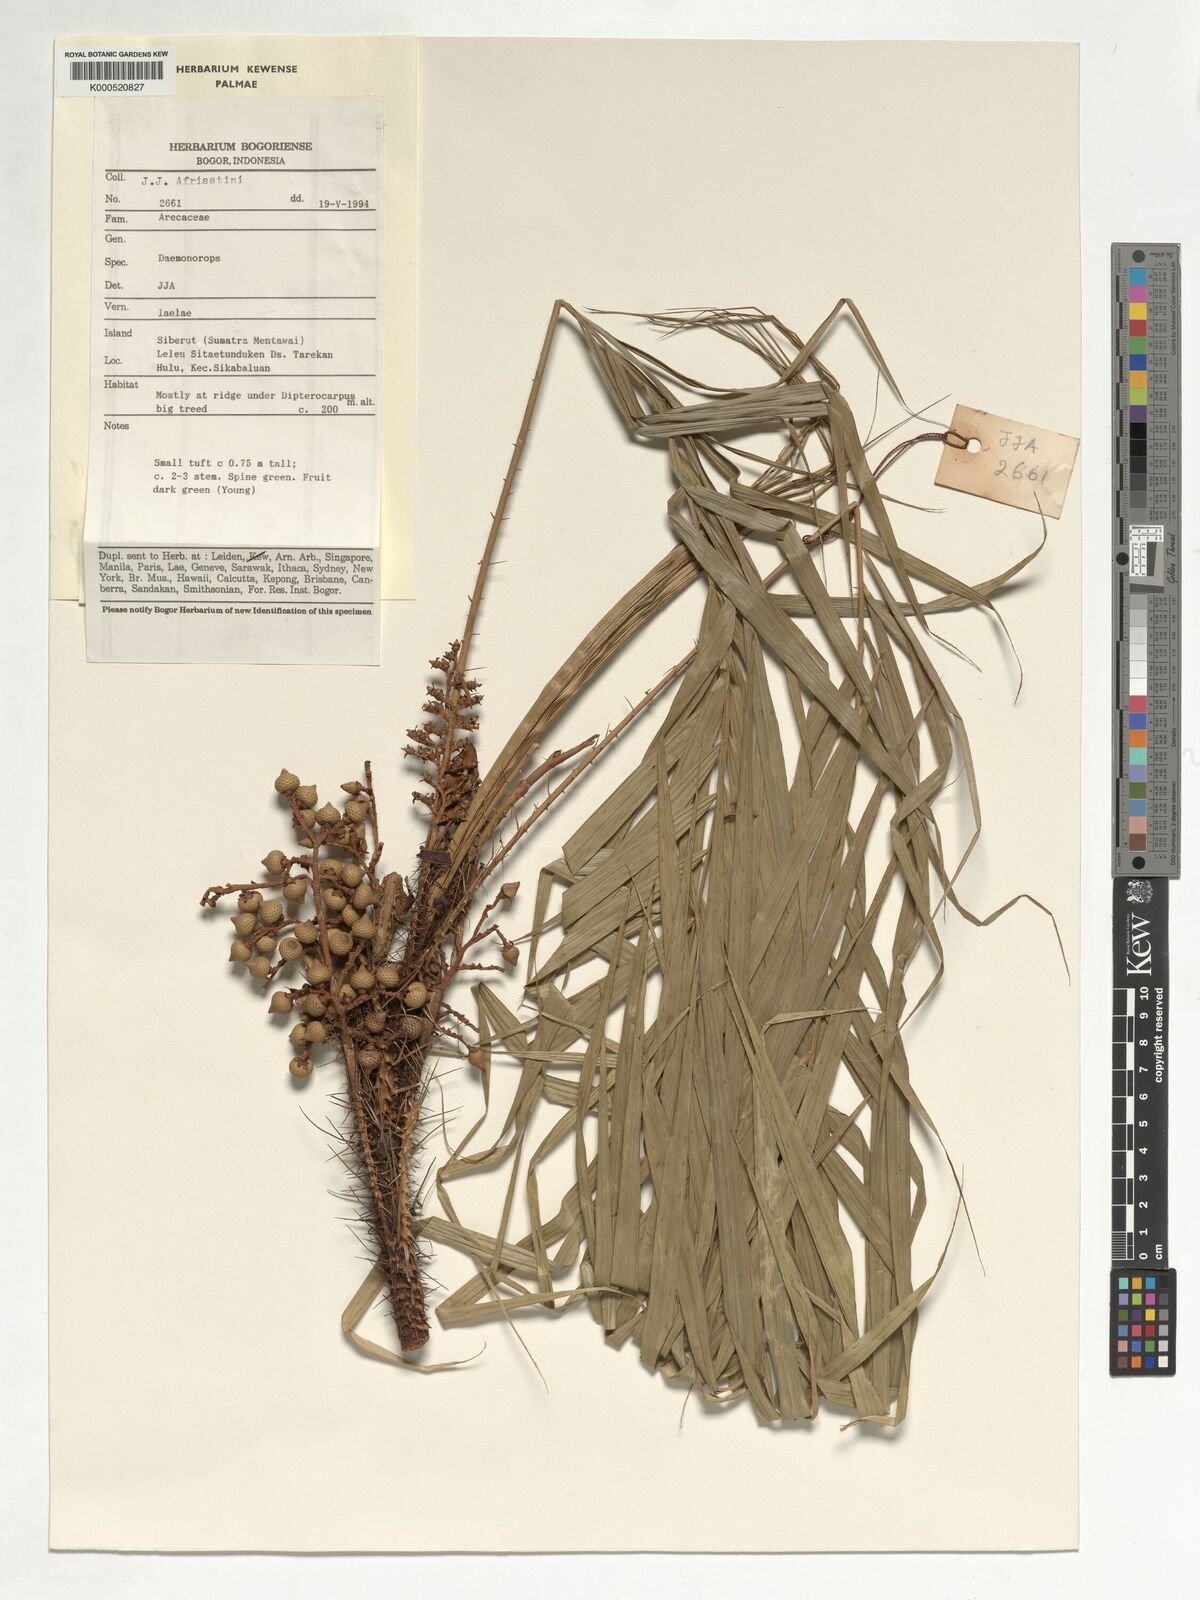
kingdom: Plantae
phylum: Tracheophyta
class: Liliopsida
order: Arecales
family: Arecaceae
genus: Calamus
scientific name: Calamus oblongus
